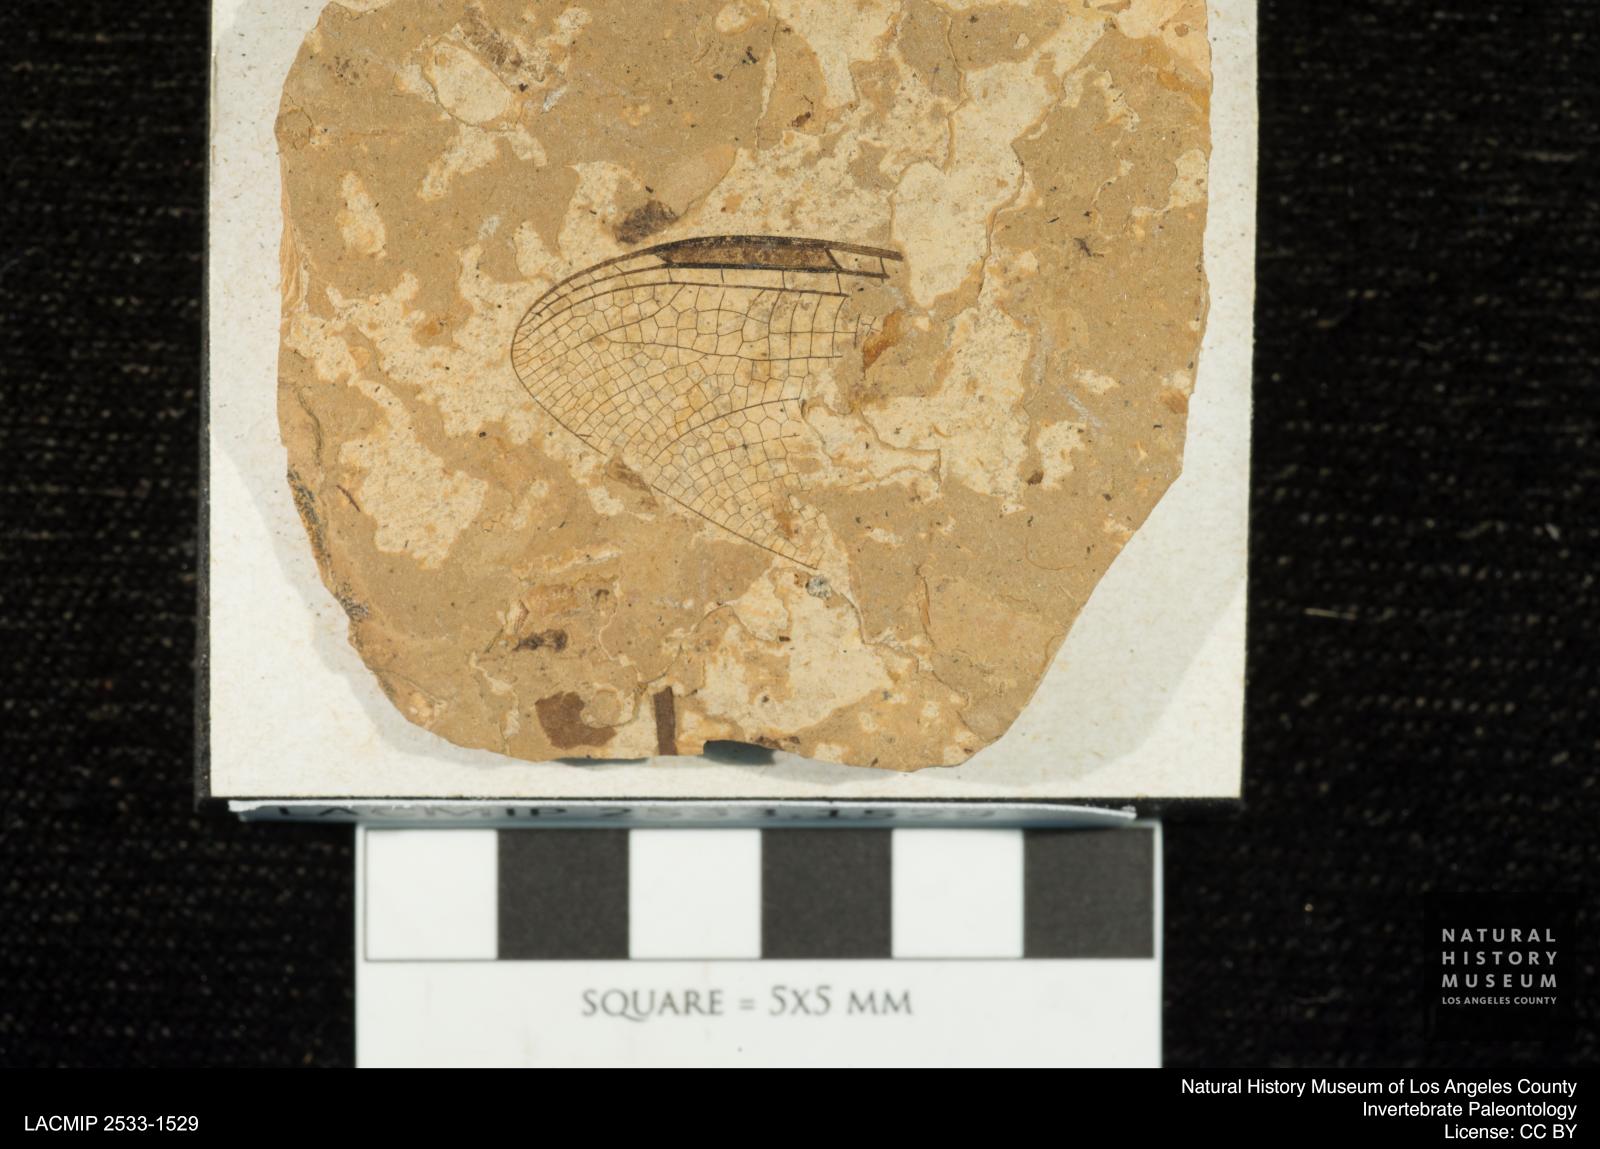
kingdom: Animalia
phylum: Arthropoda
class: Insecta
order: Odonata
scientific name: Odonata
